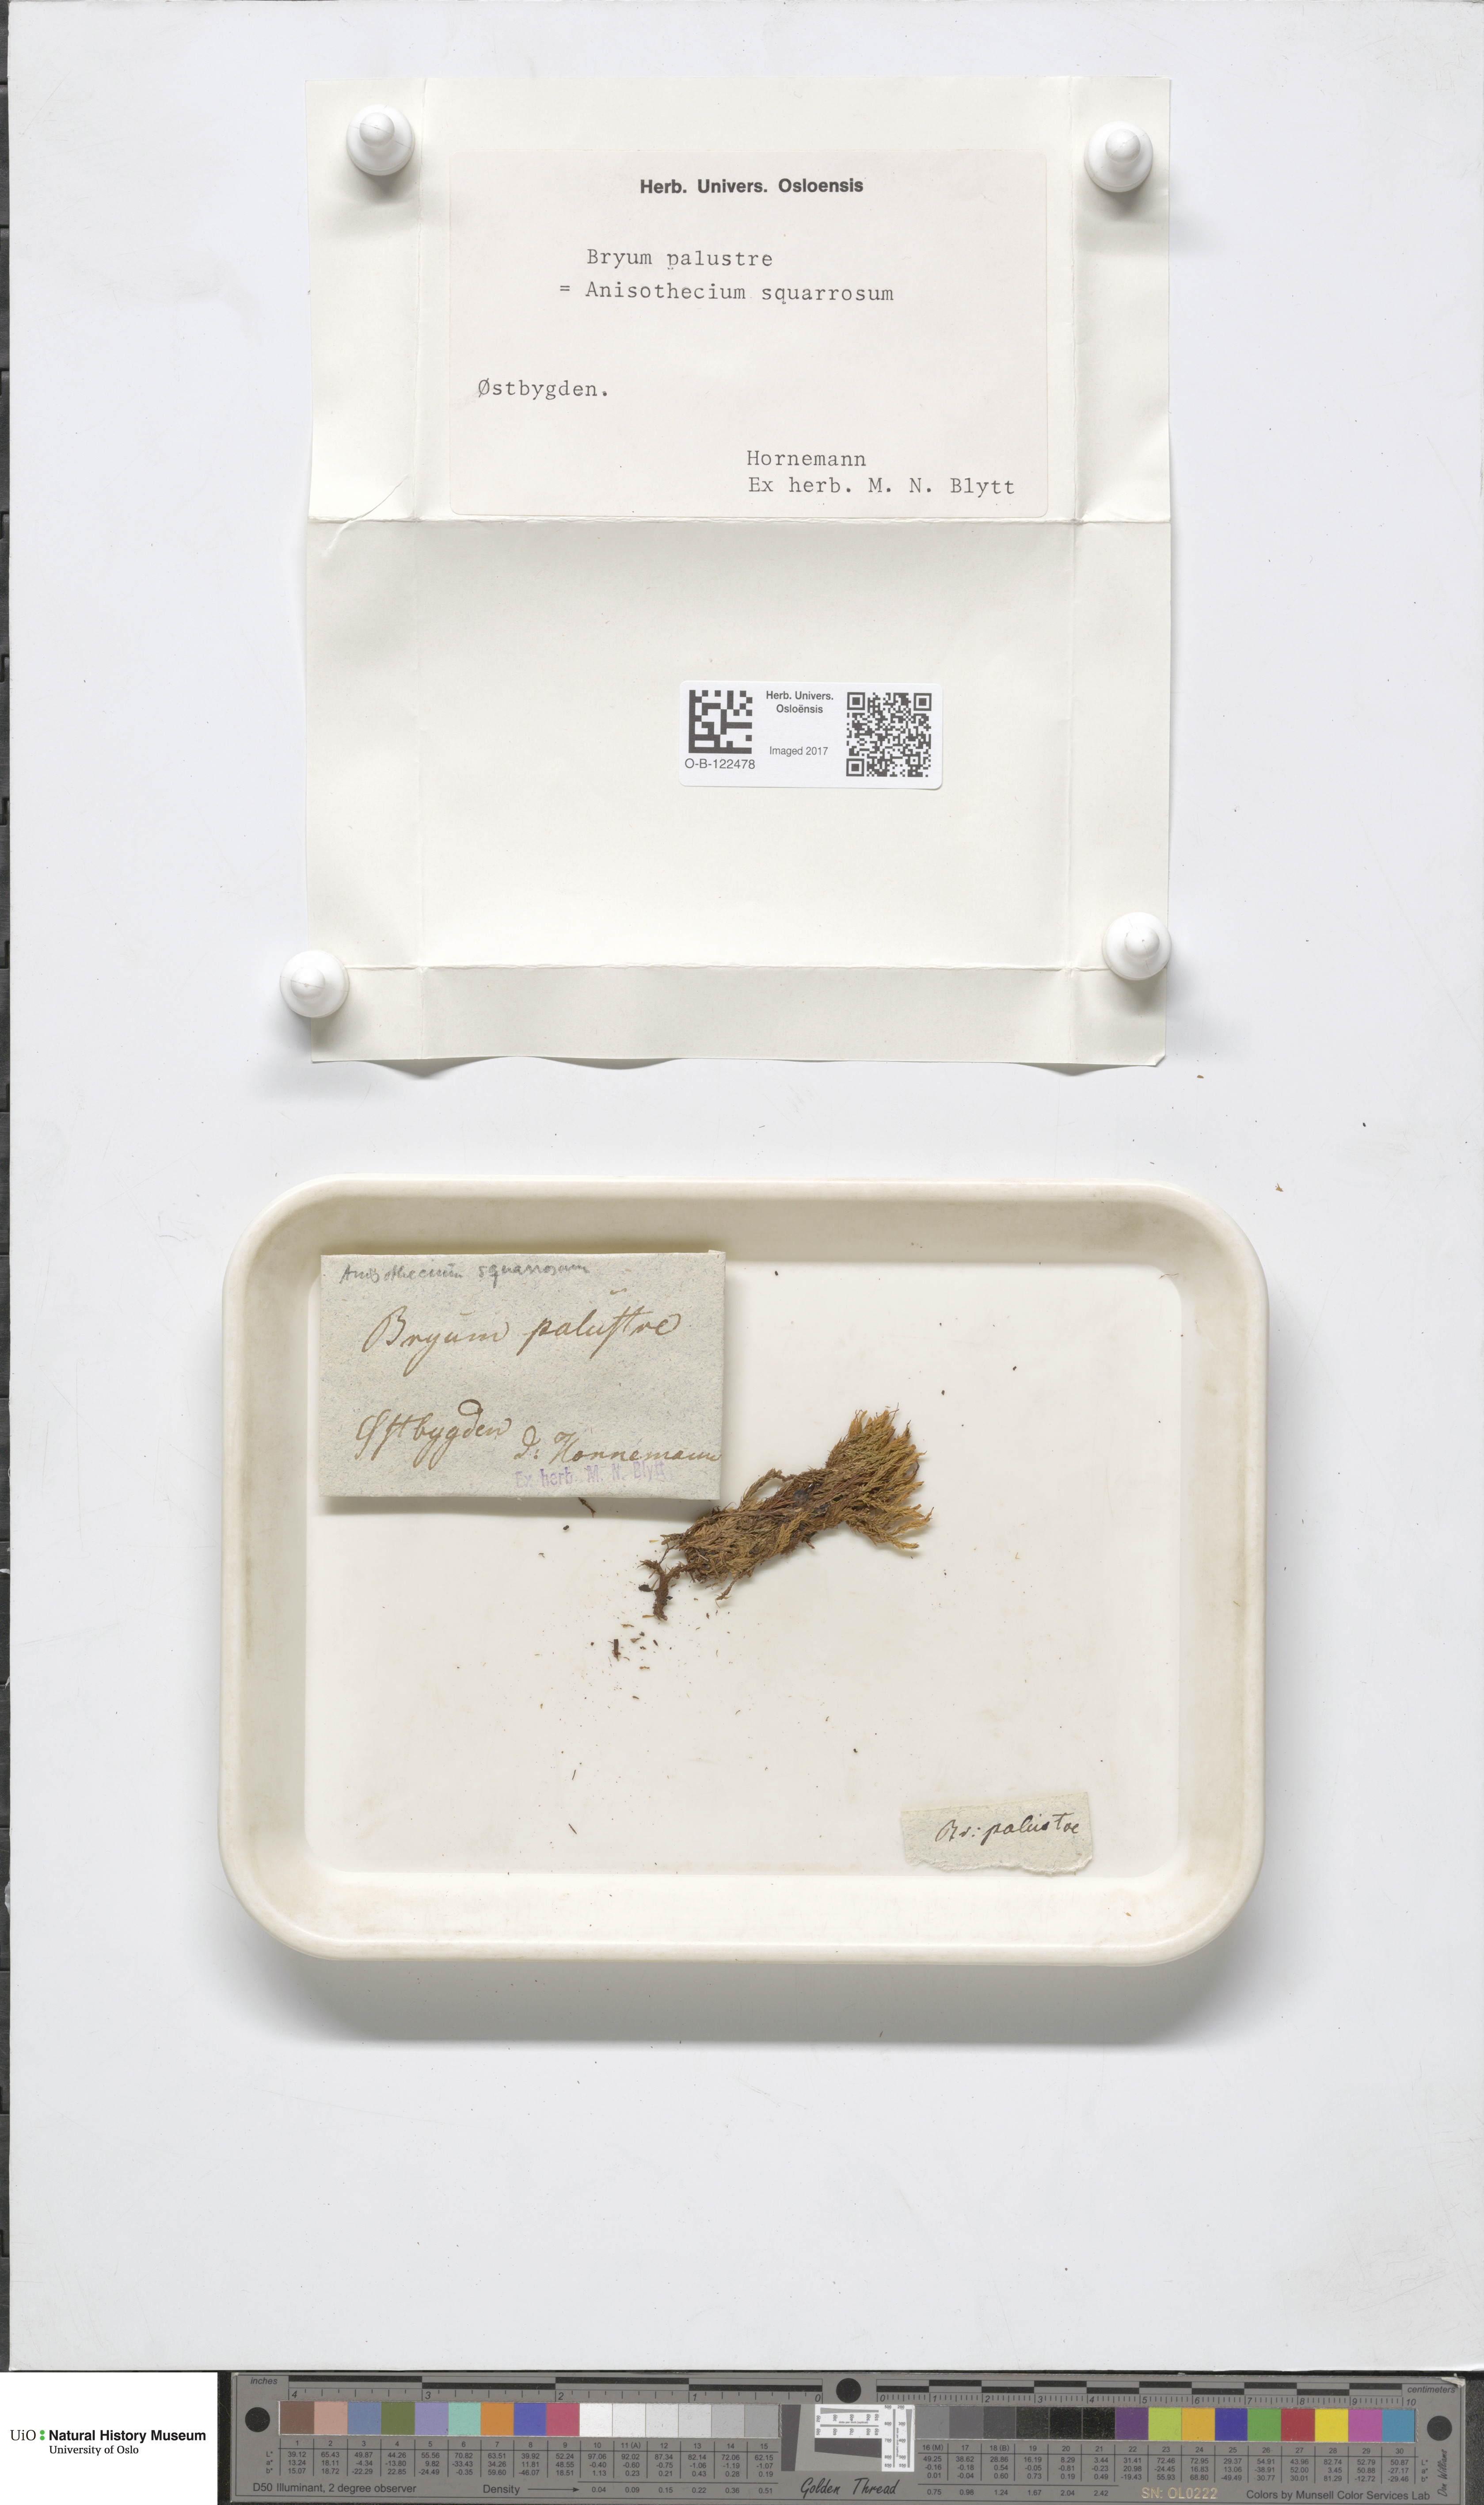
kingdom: Plantae
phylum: Bryophyta
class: Bryopsida
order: Dicranales
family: Aongstroemiaceae
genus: Diobelonella
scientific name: Diobelonella palustris
